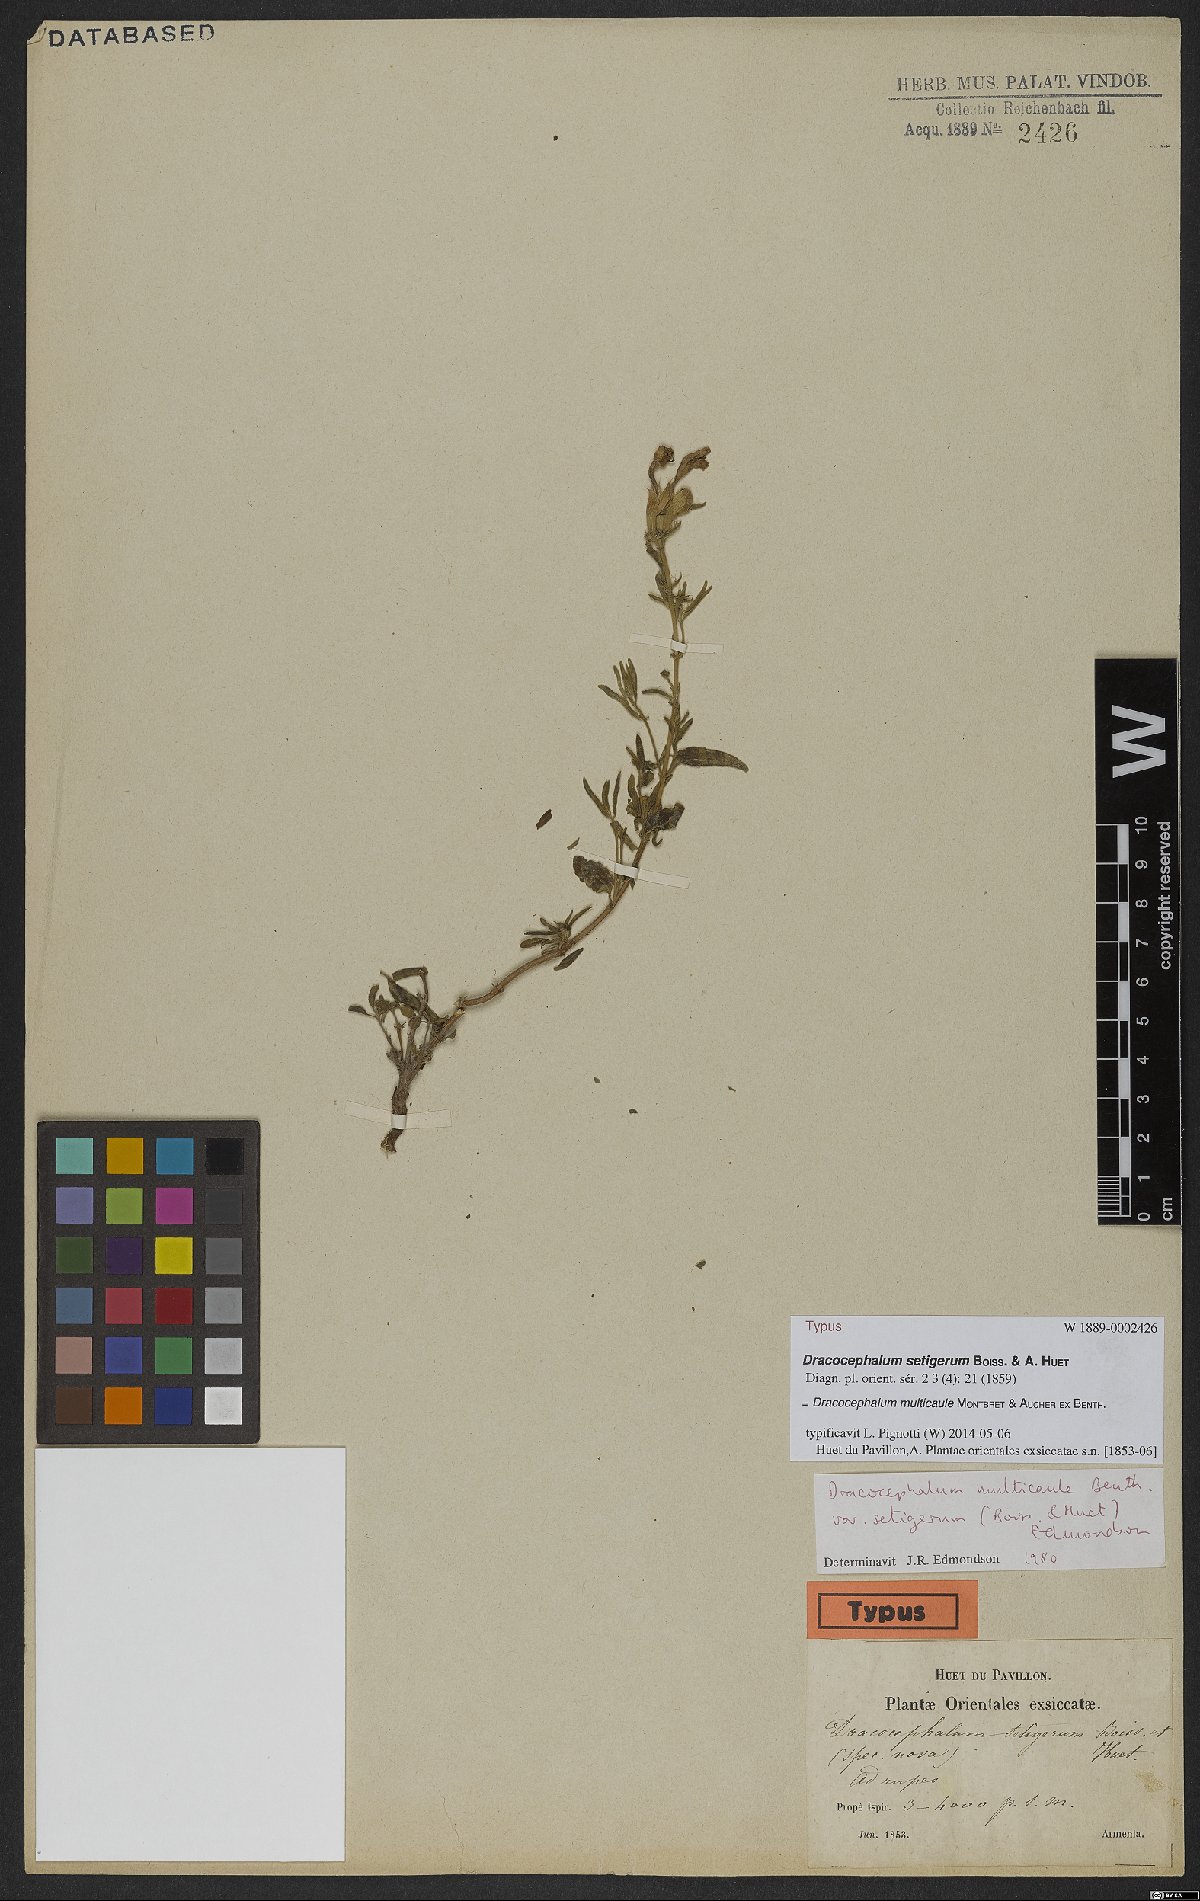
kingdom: Plantae
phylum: Tracheophyta
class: Magnoliopsida
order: Lamiales
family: Lamiaceae
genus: Dracocephalum
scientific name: Dracocephalum multicaule
